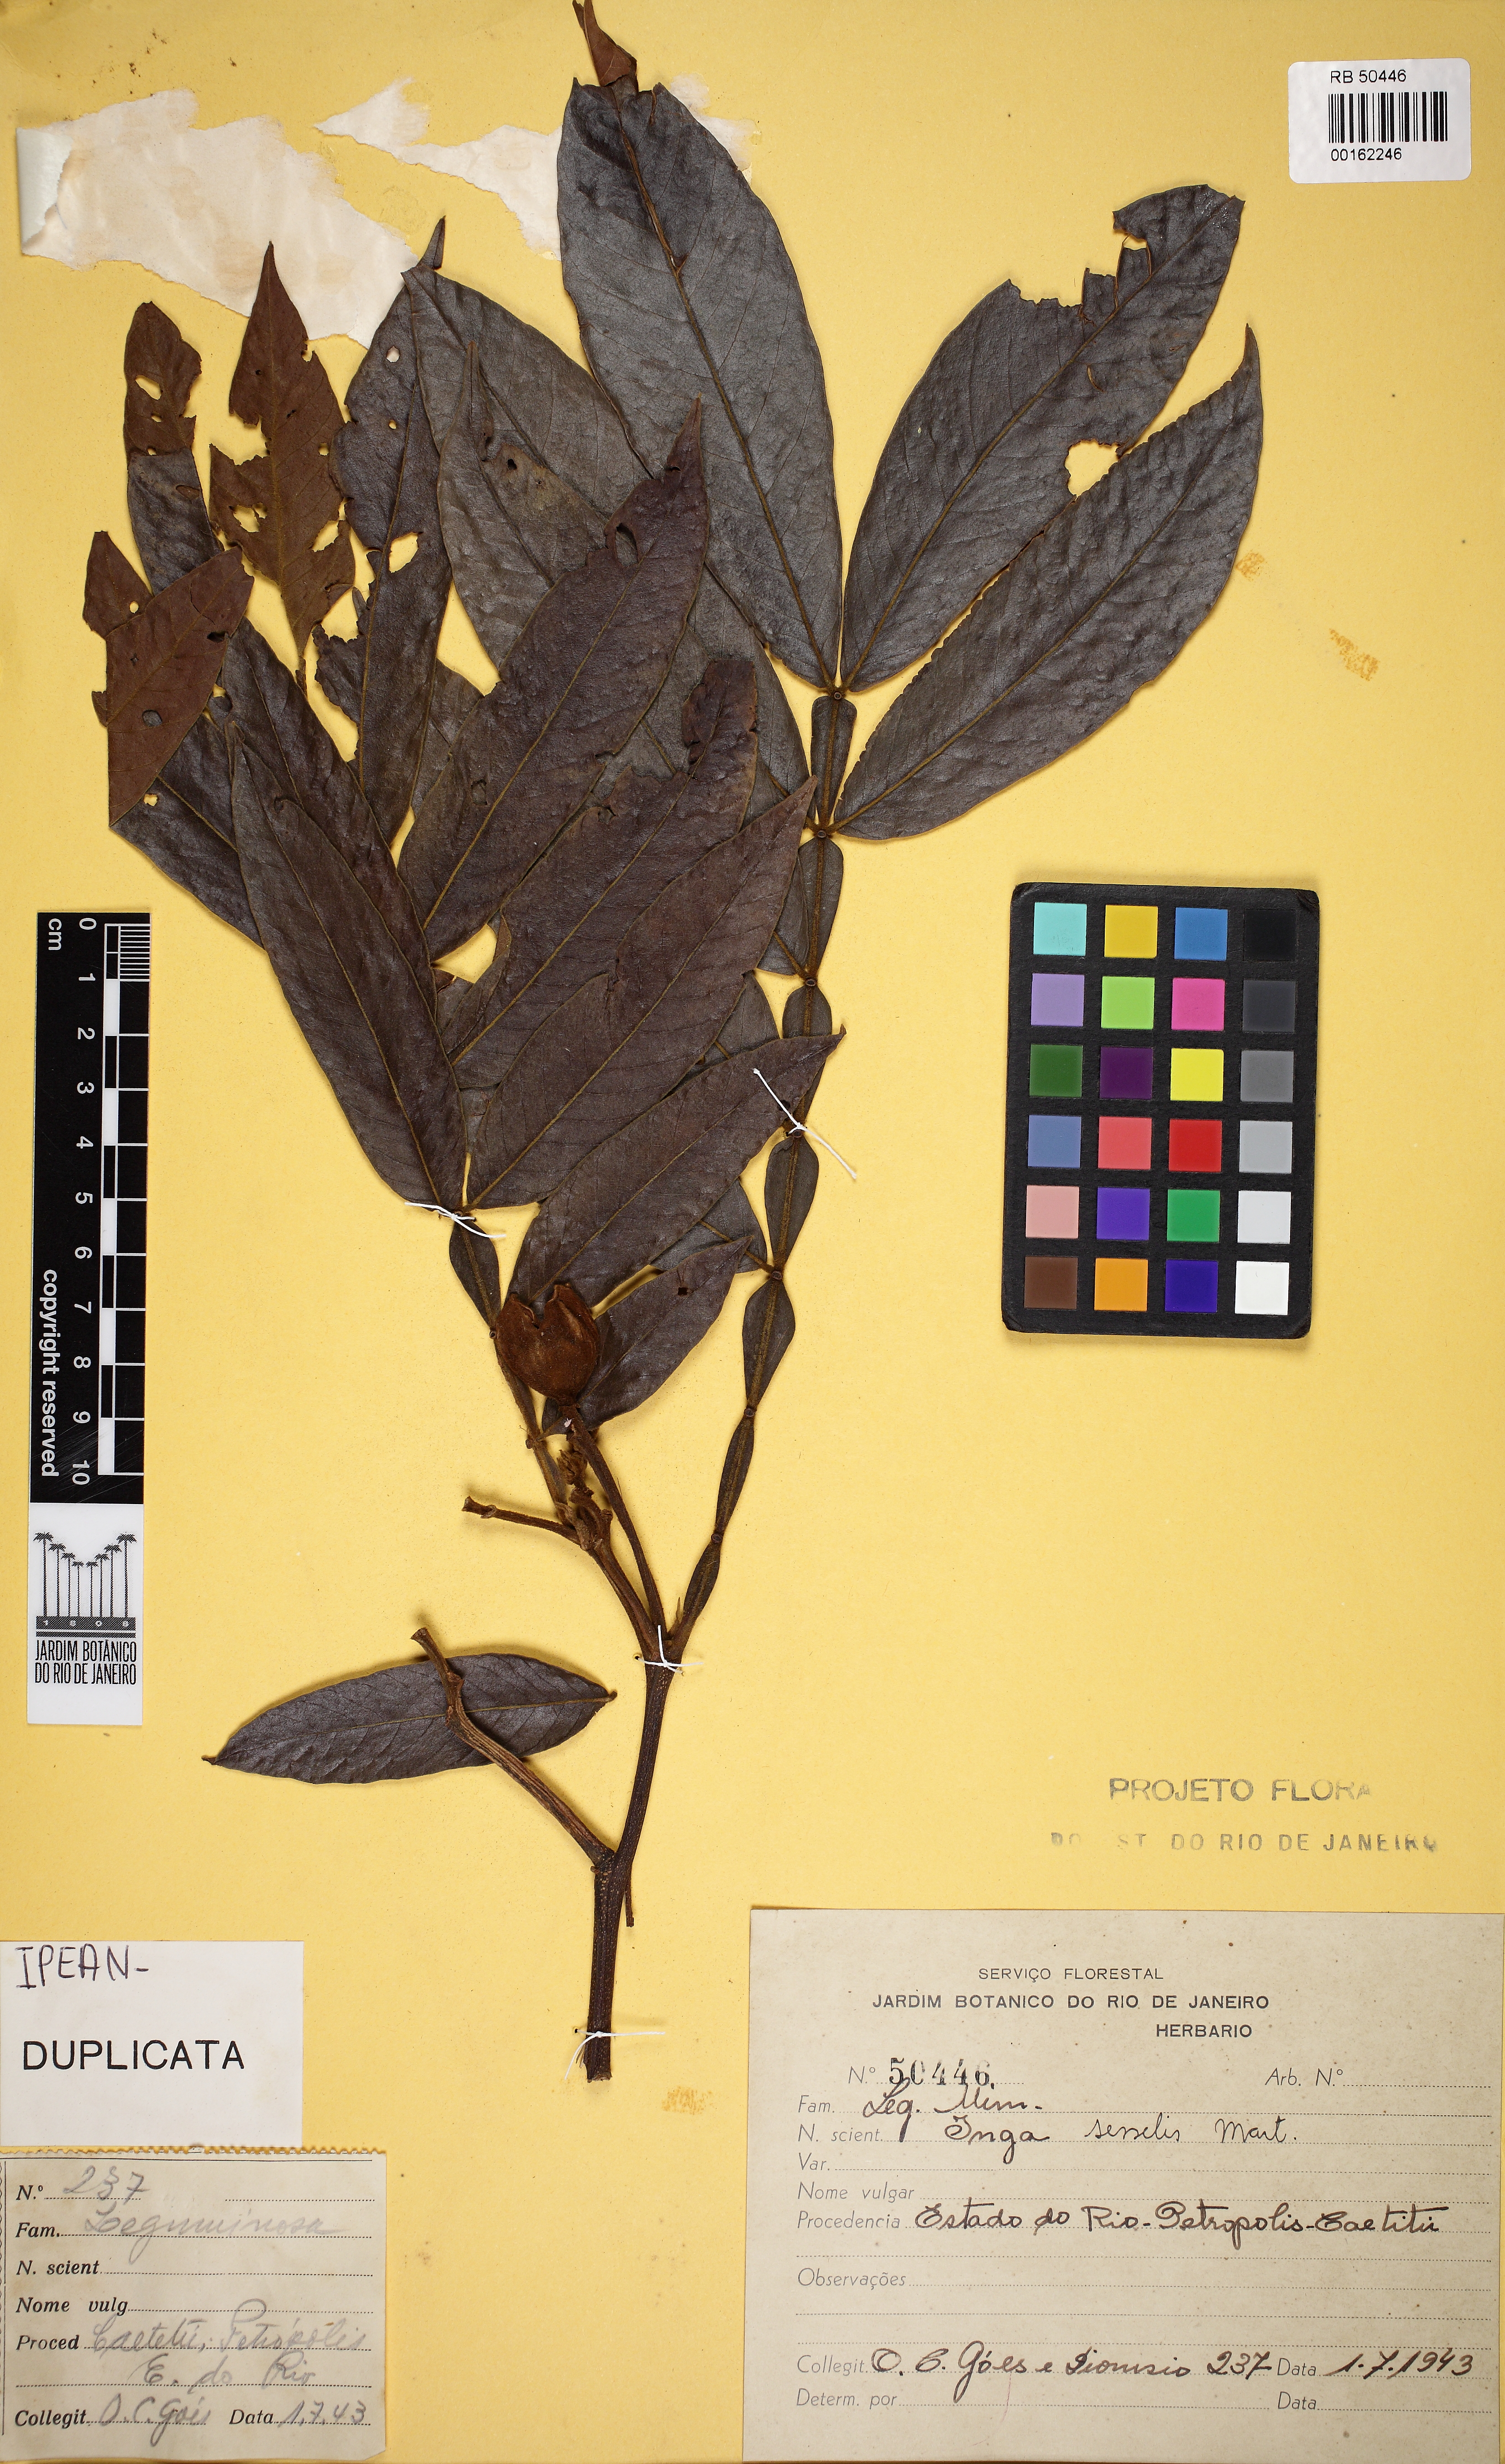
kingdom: Plantae
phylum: Tracheophyta
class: Magnoliopsida
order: Fabales
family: Fabaceae
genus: Inga
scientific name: Inga sessilis
